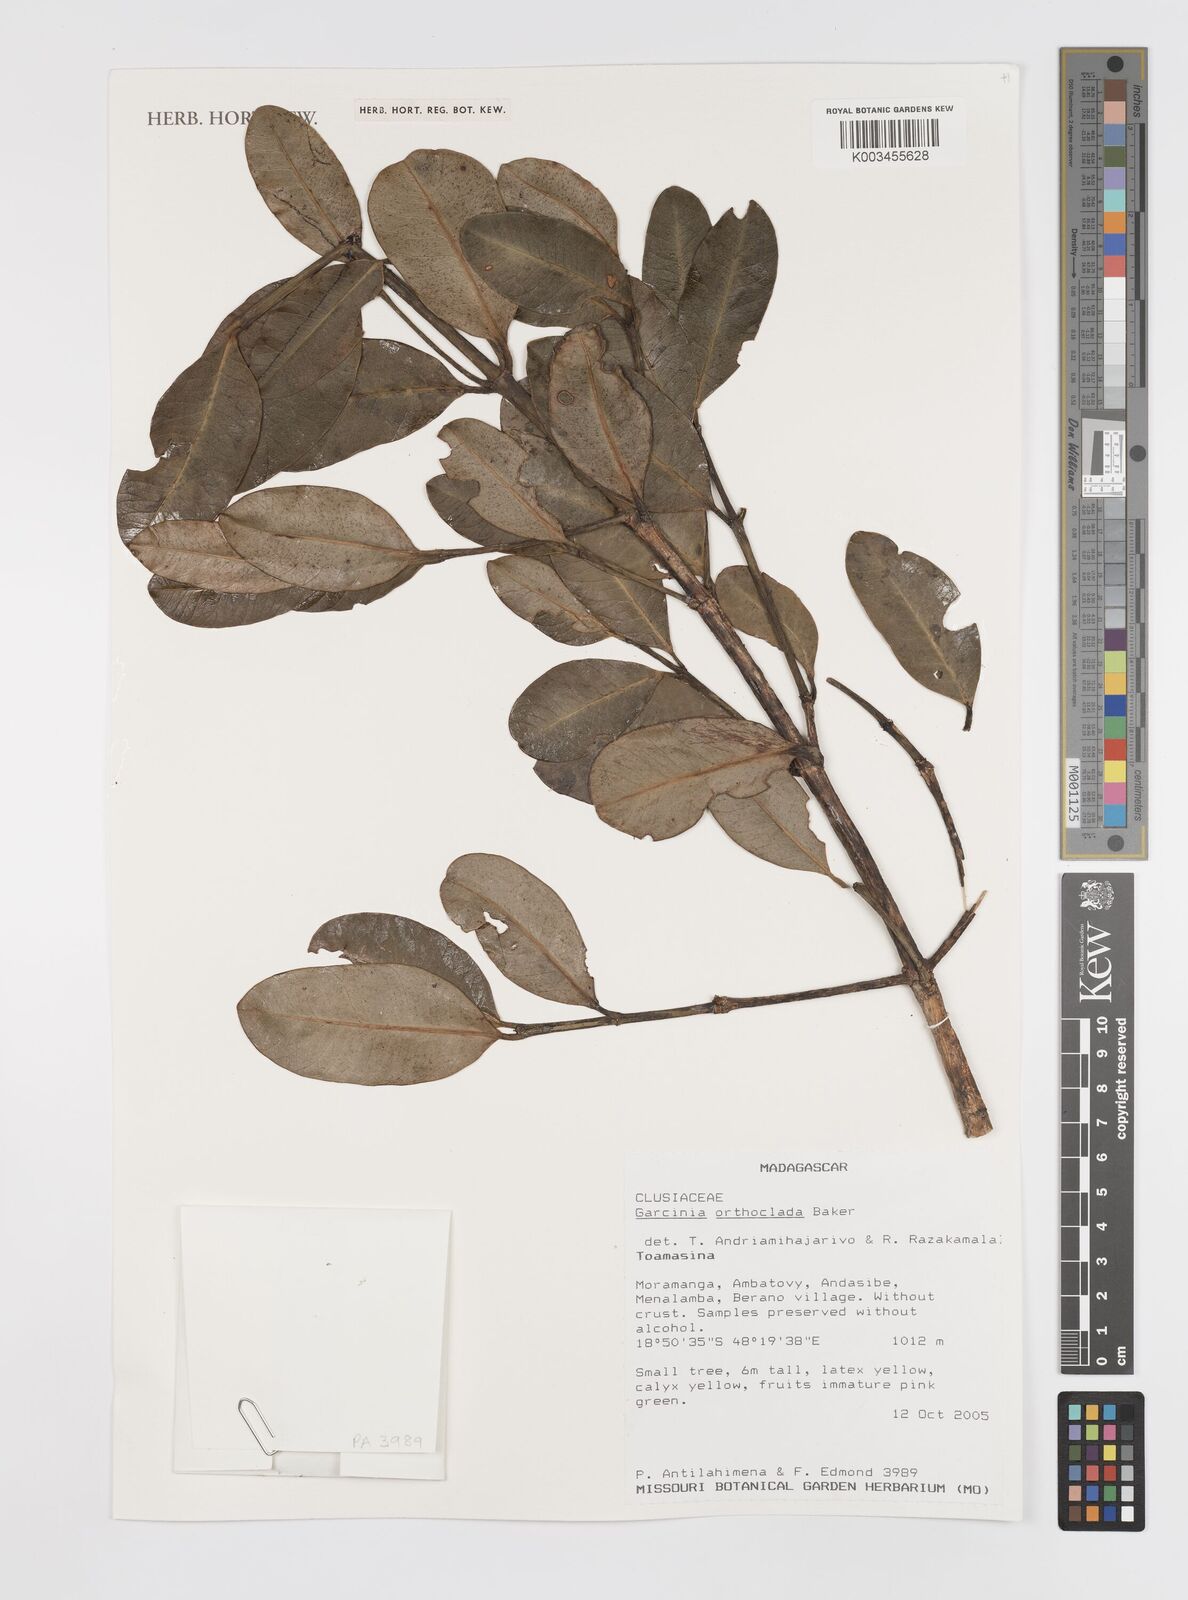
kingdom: Plantae
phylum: Tracheophyta
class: Magnoliopsida
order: Malpighiales
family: Clusiaceae
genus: Garcinia
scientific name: Garcinia orthoclada
